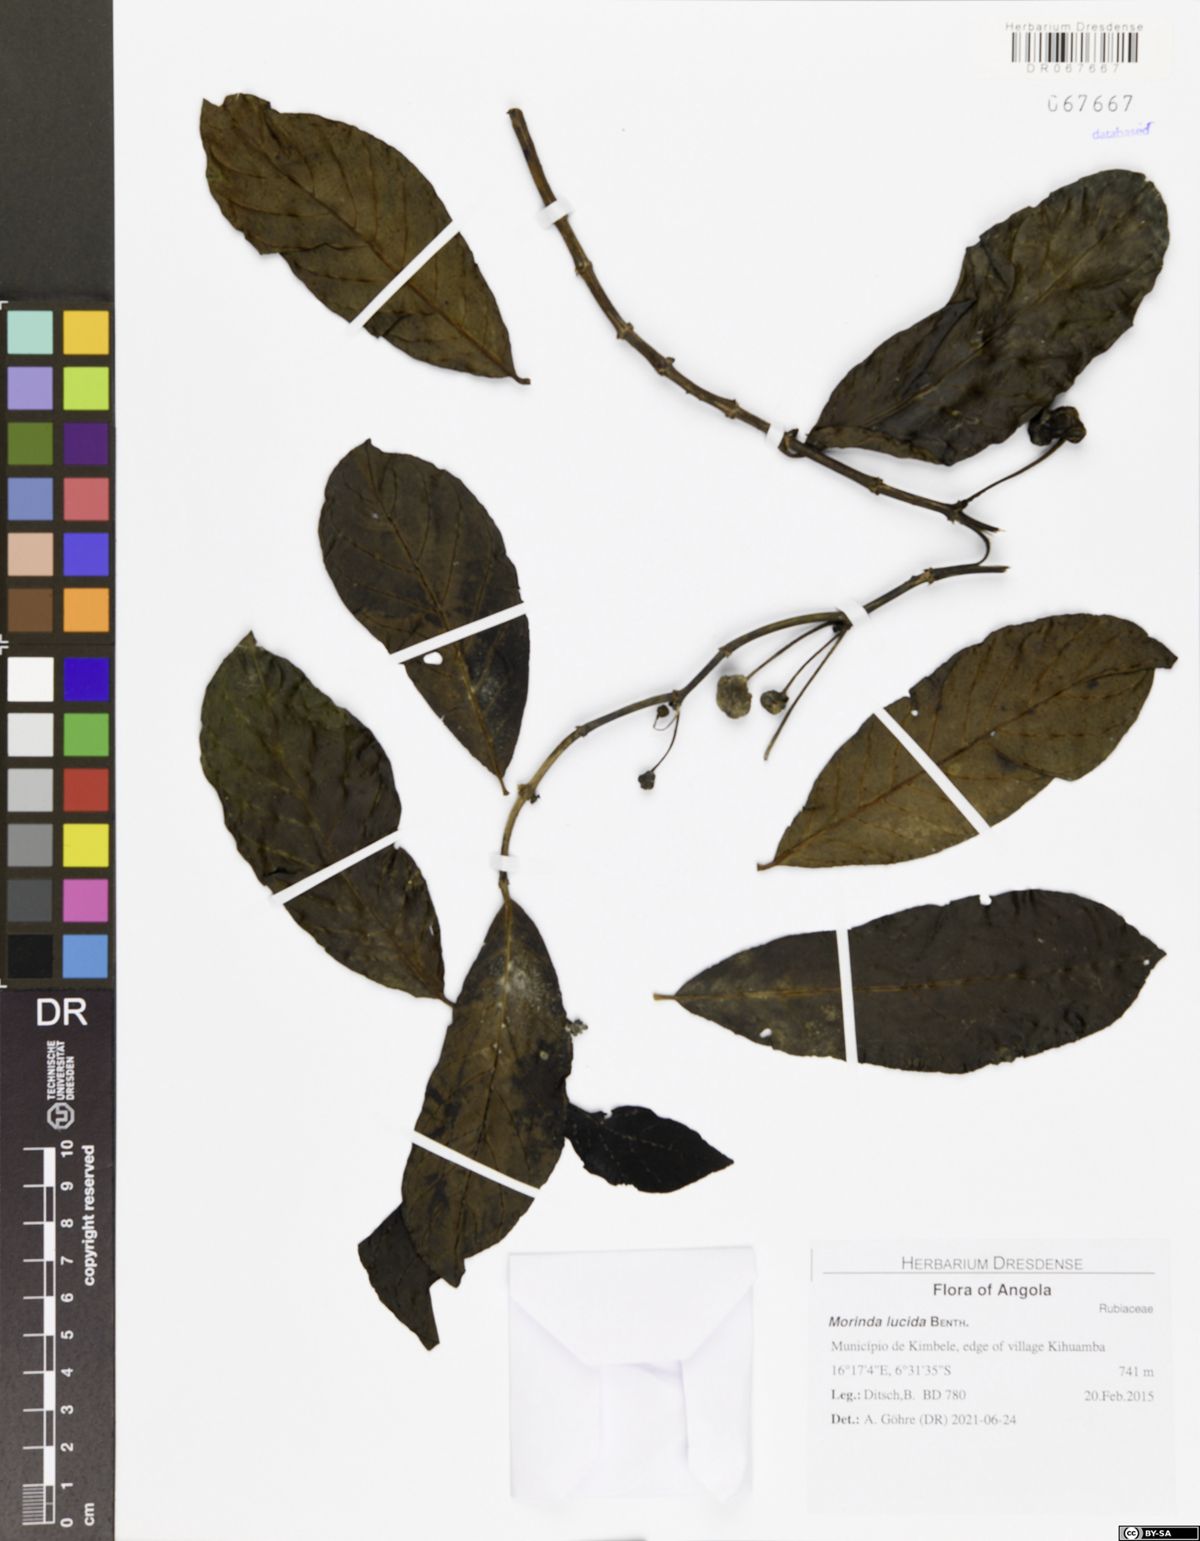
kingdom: Plantae
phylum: Tracheophyta
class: Magnoliopsida
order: Gentianales
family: Rubiaceae
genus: Morinda
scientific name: Morinda lucida
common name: Brimstonetree
